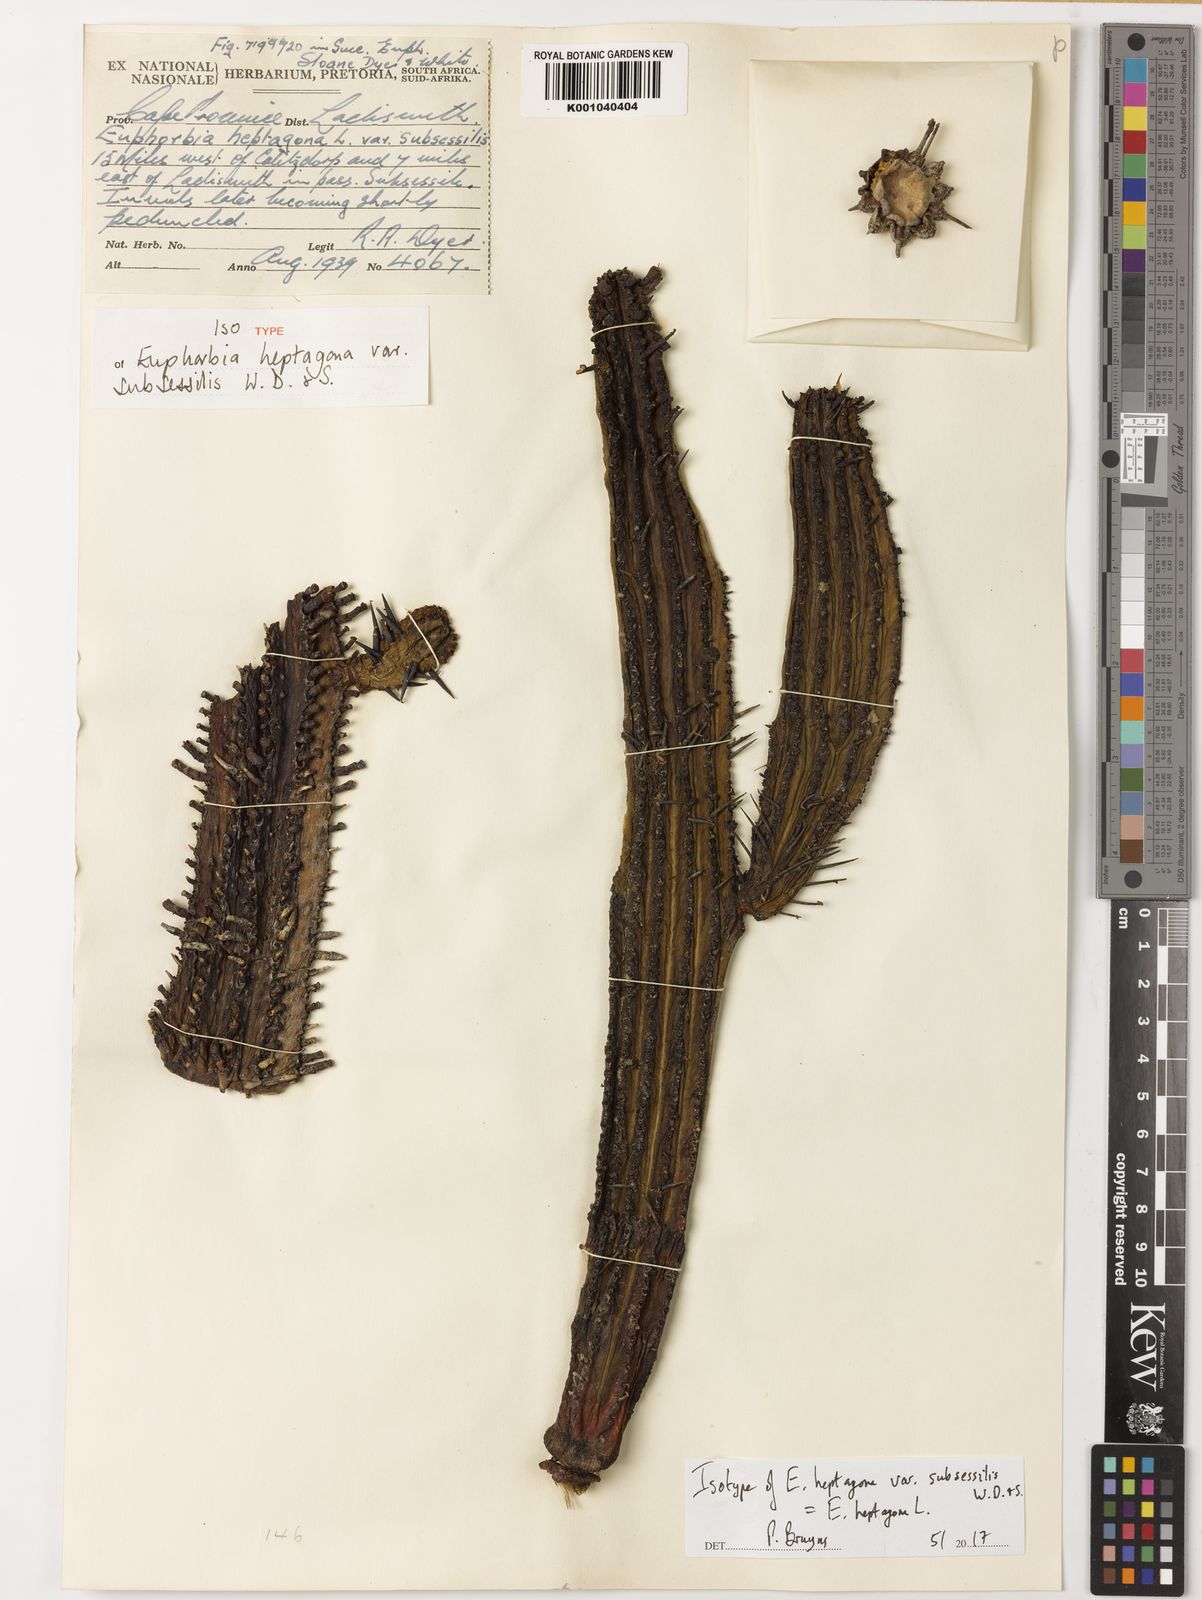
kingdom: Plantae
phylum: Tracheophyta
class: Magnoliopsida
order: Malpighiales
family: Euphorbiaceae
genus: Euphorbia
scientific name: Euphorbia heptagona
